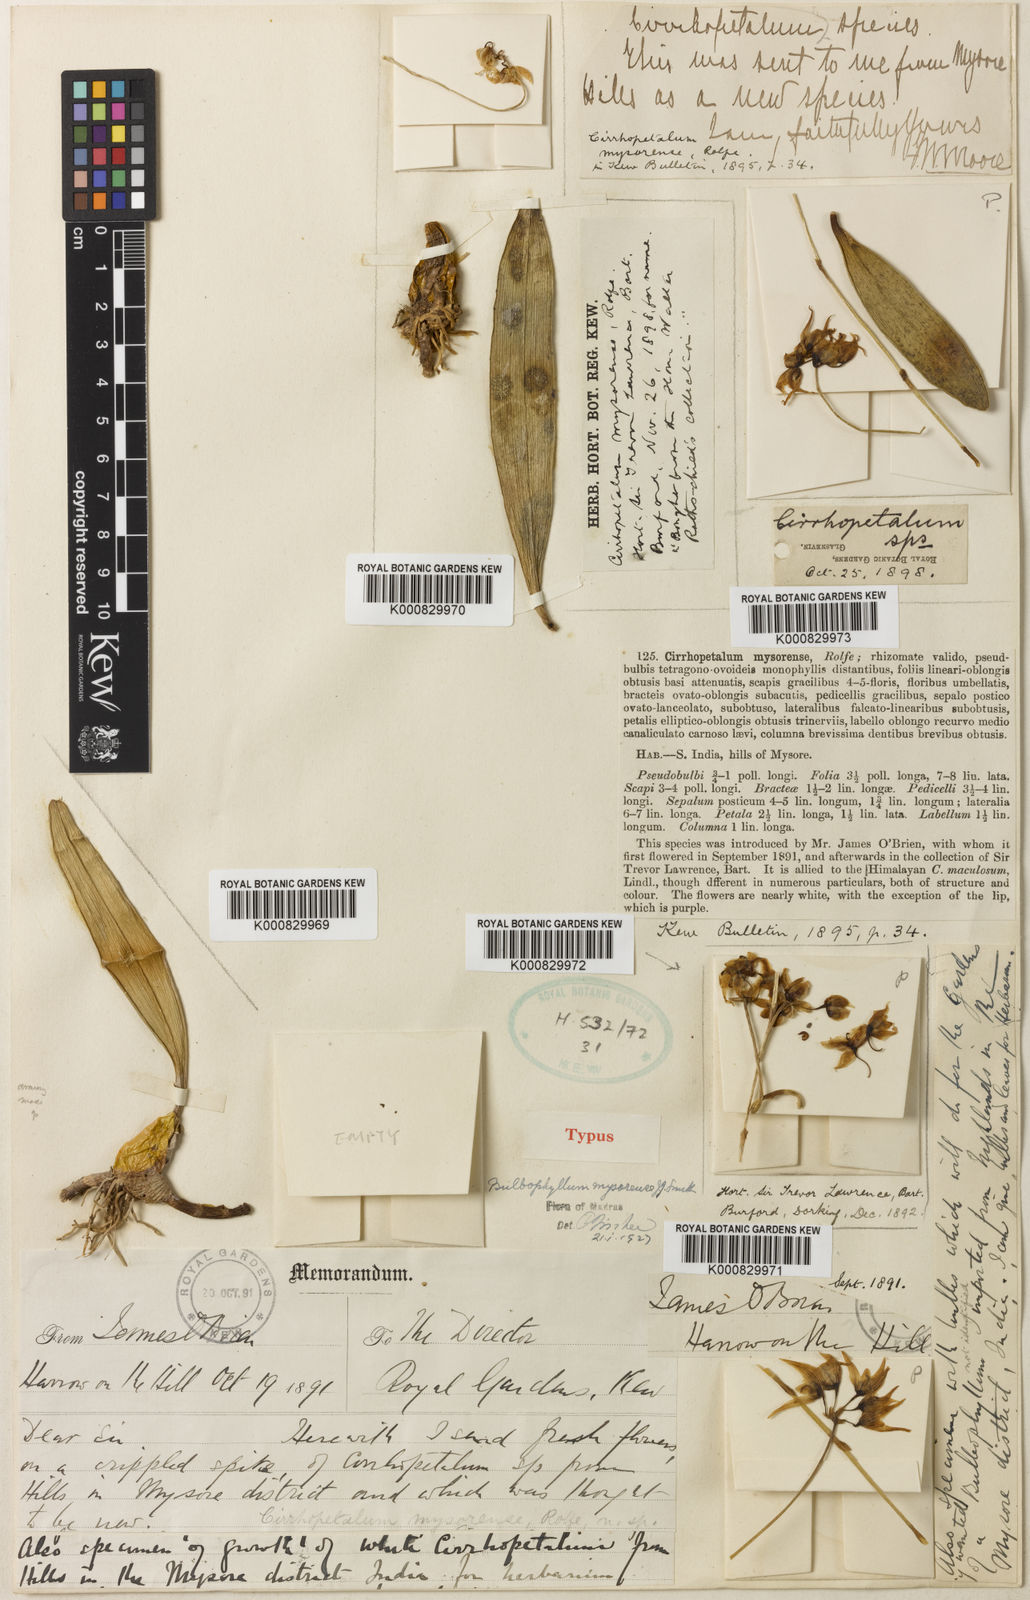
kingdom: Plantae
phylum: Tracheophyta
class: Liliopsida
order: Asparagales
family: Orchidaceae
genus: Bulbophyllum
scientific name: Bulbophyllum mysorense
